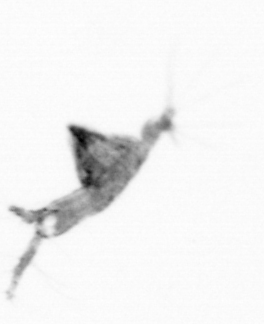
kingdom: Animalia
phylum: Arthropoda
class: Copepoda
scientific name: Copepoda
